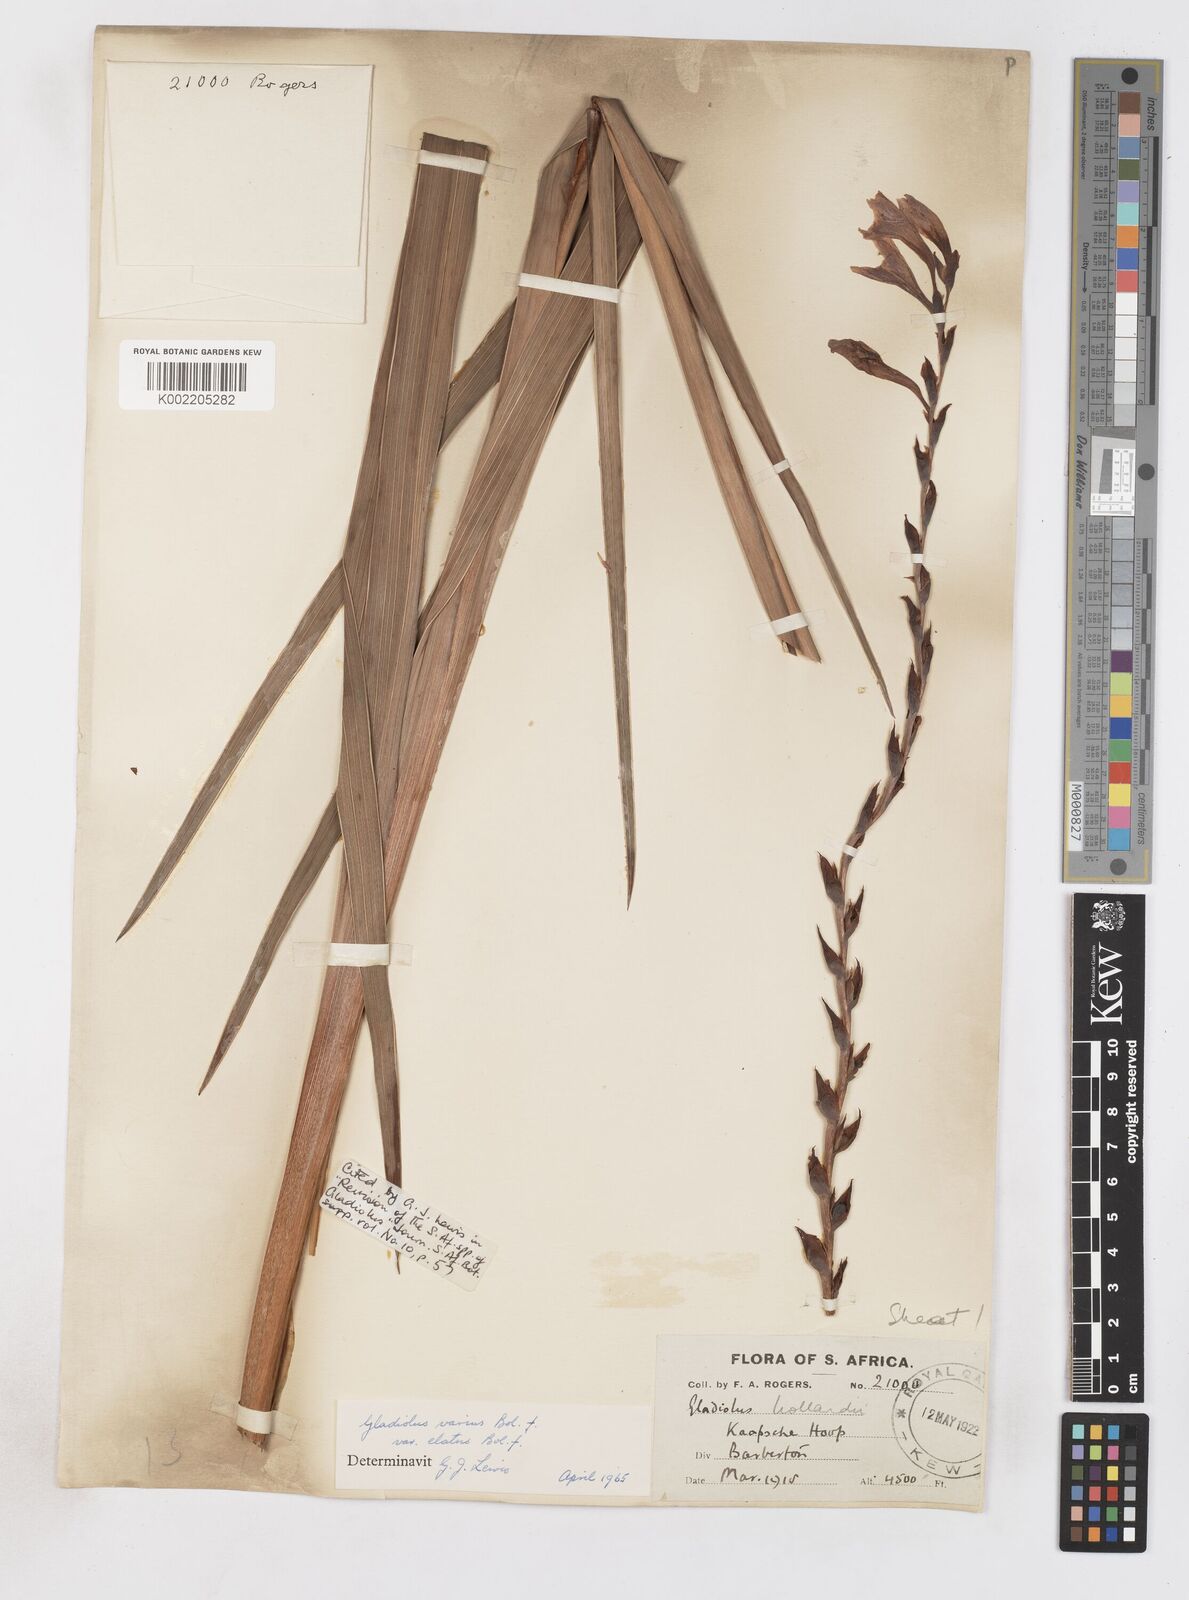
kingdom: Plantae
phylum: Tracheophyta
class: Liliopsida
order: Asparagales
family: Iridaceae
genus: Gladiolus
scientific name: Gladiolus hollandii
